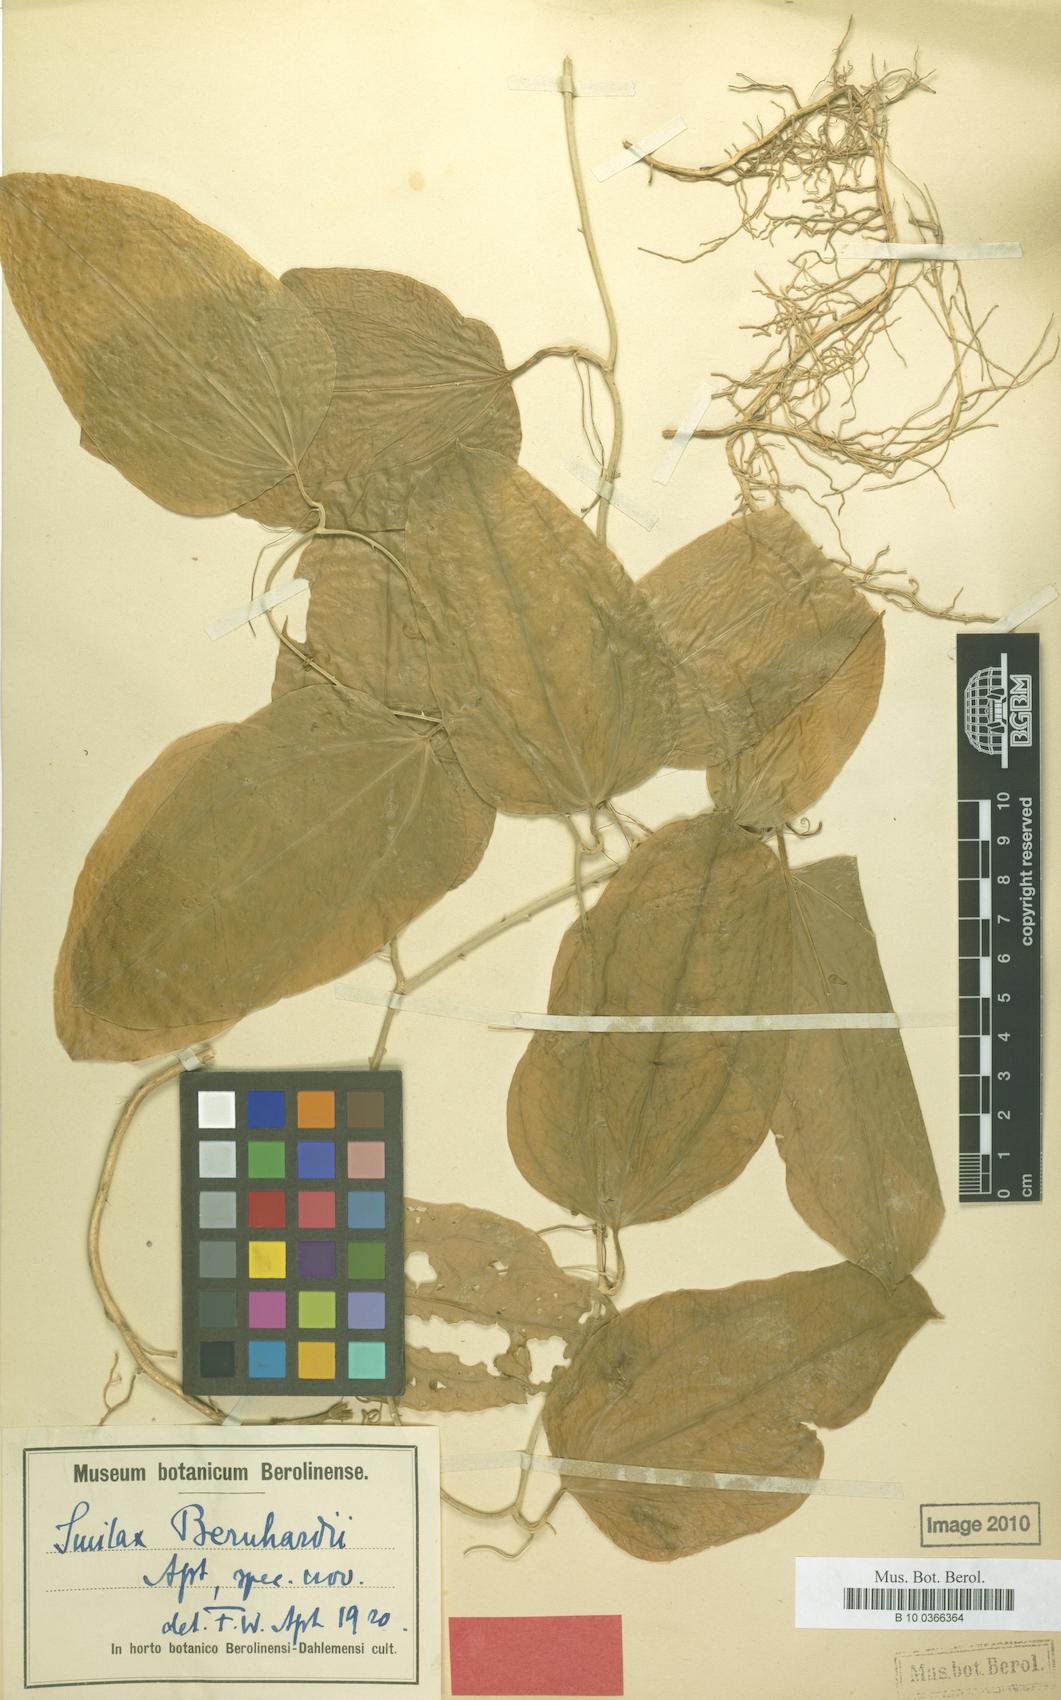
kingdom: Plantae
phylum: Tracheophyta
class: Liliopsida
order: Liliales
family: Smilacaceae
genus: Smilax
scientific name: Smilax officinalis
